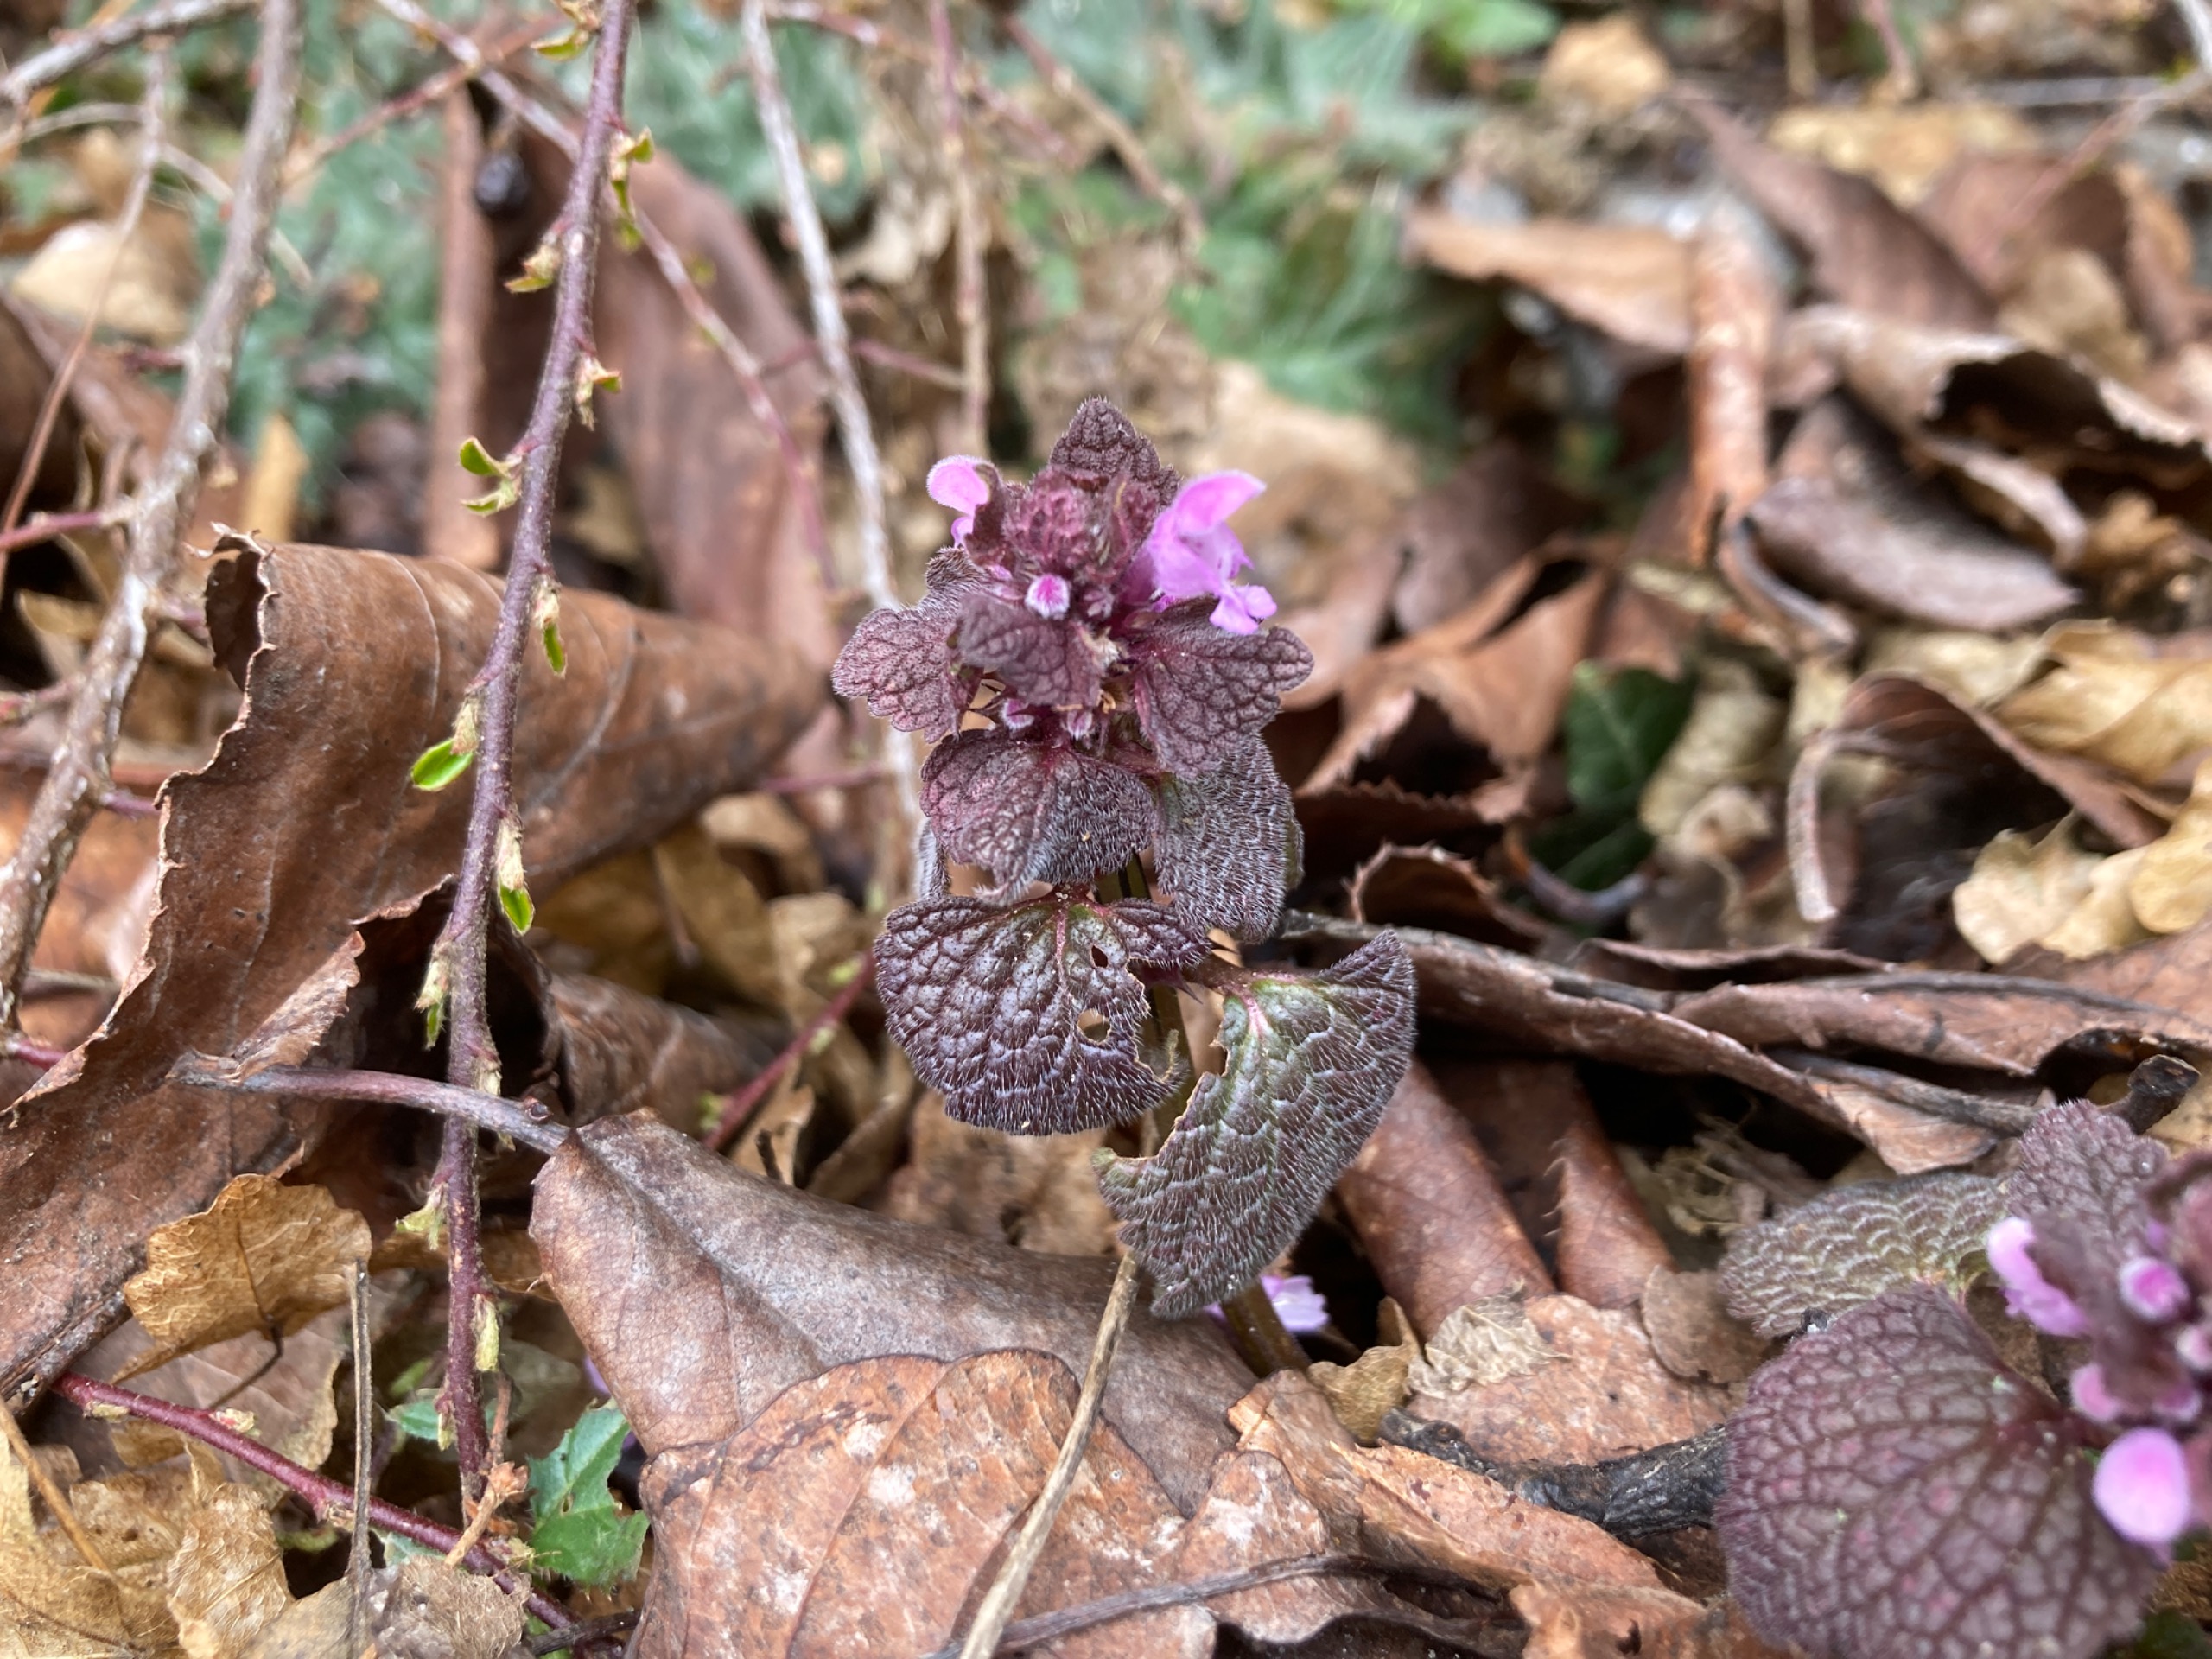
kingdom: Plantae
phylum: Tracheophyta
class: Magnoliopsida
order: Lamiales
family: Lamiaceae
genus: Lamium
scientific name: Lamium purpureum
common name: Rød tvetand
